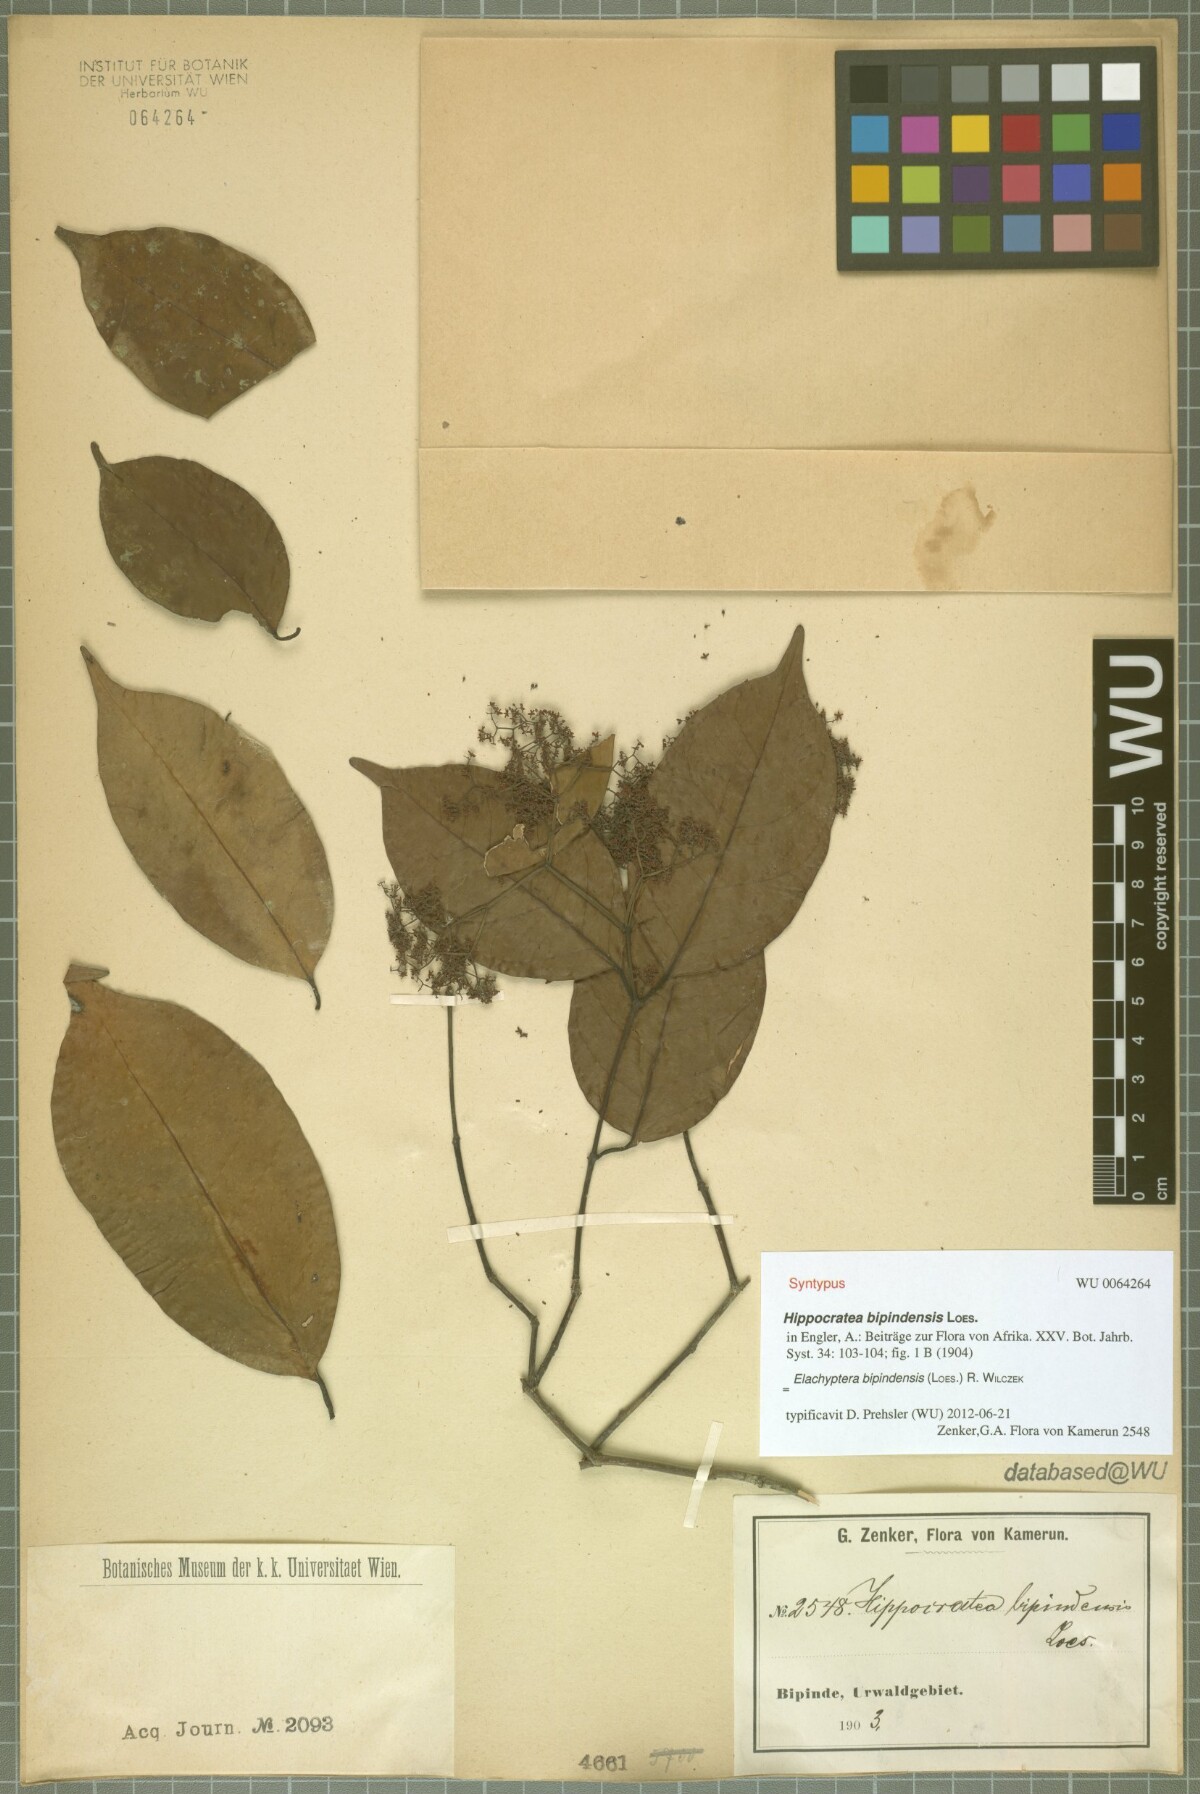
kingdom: Plantae
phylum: Tracheophyta
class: Magnoliopsida
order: Celastrales
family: Celastraceae
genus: Elachyptera
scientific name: Elachyptera bipindensis
